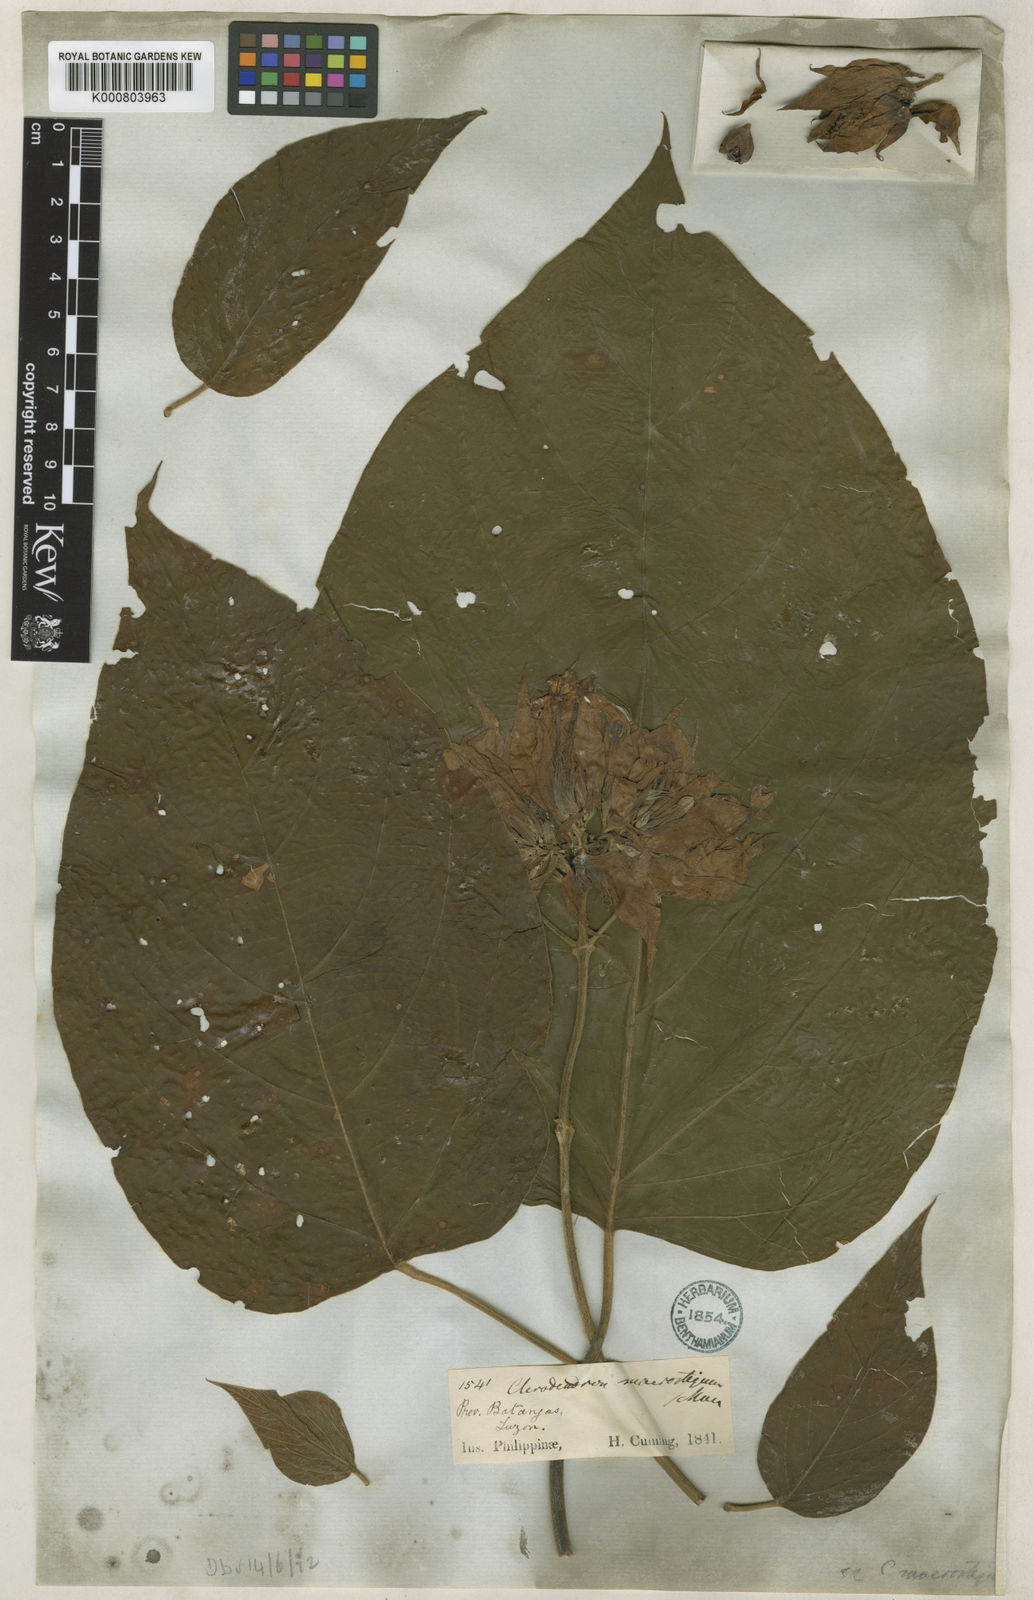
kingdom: Plantae
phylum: Tracheophyta
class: Magnoliopsida
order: Lamiales
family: Lamiaceae
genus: Clerodendrum
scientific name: Clerodendrum macrostegium
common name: Velvetleaf glorybower
